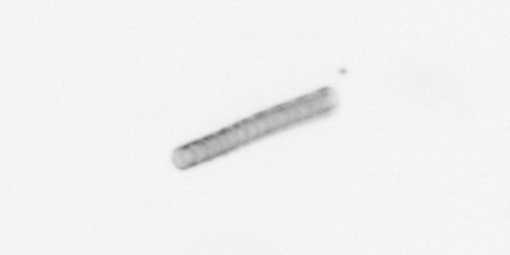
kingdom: Chromista
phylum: Ochrophyta
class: Bacillariophyceae
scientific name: Bacillariophyceae
